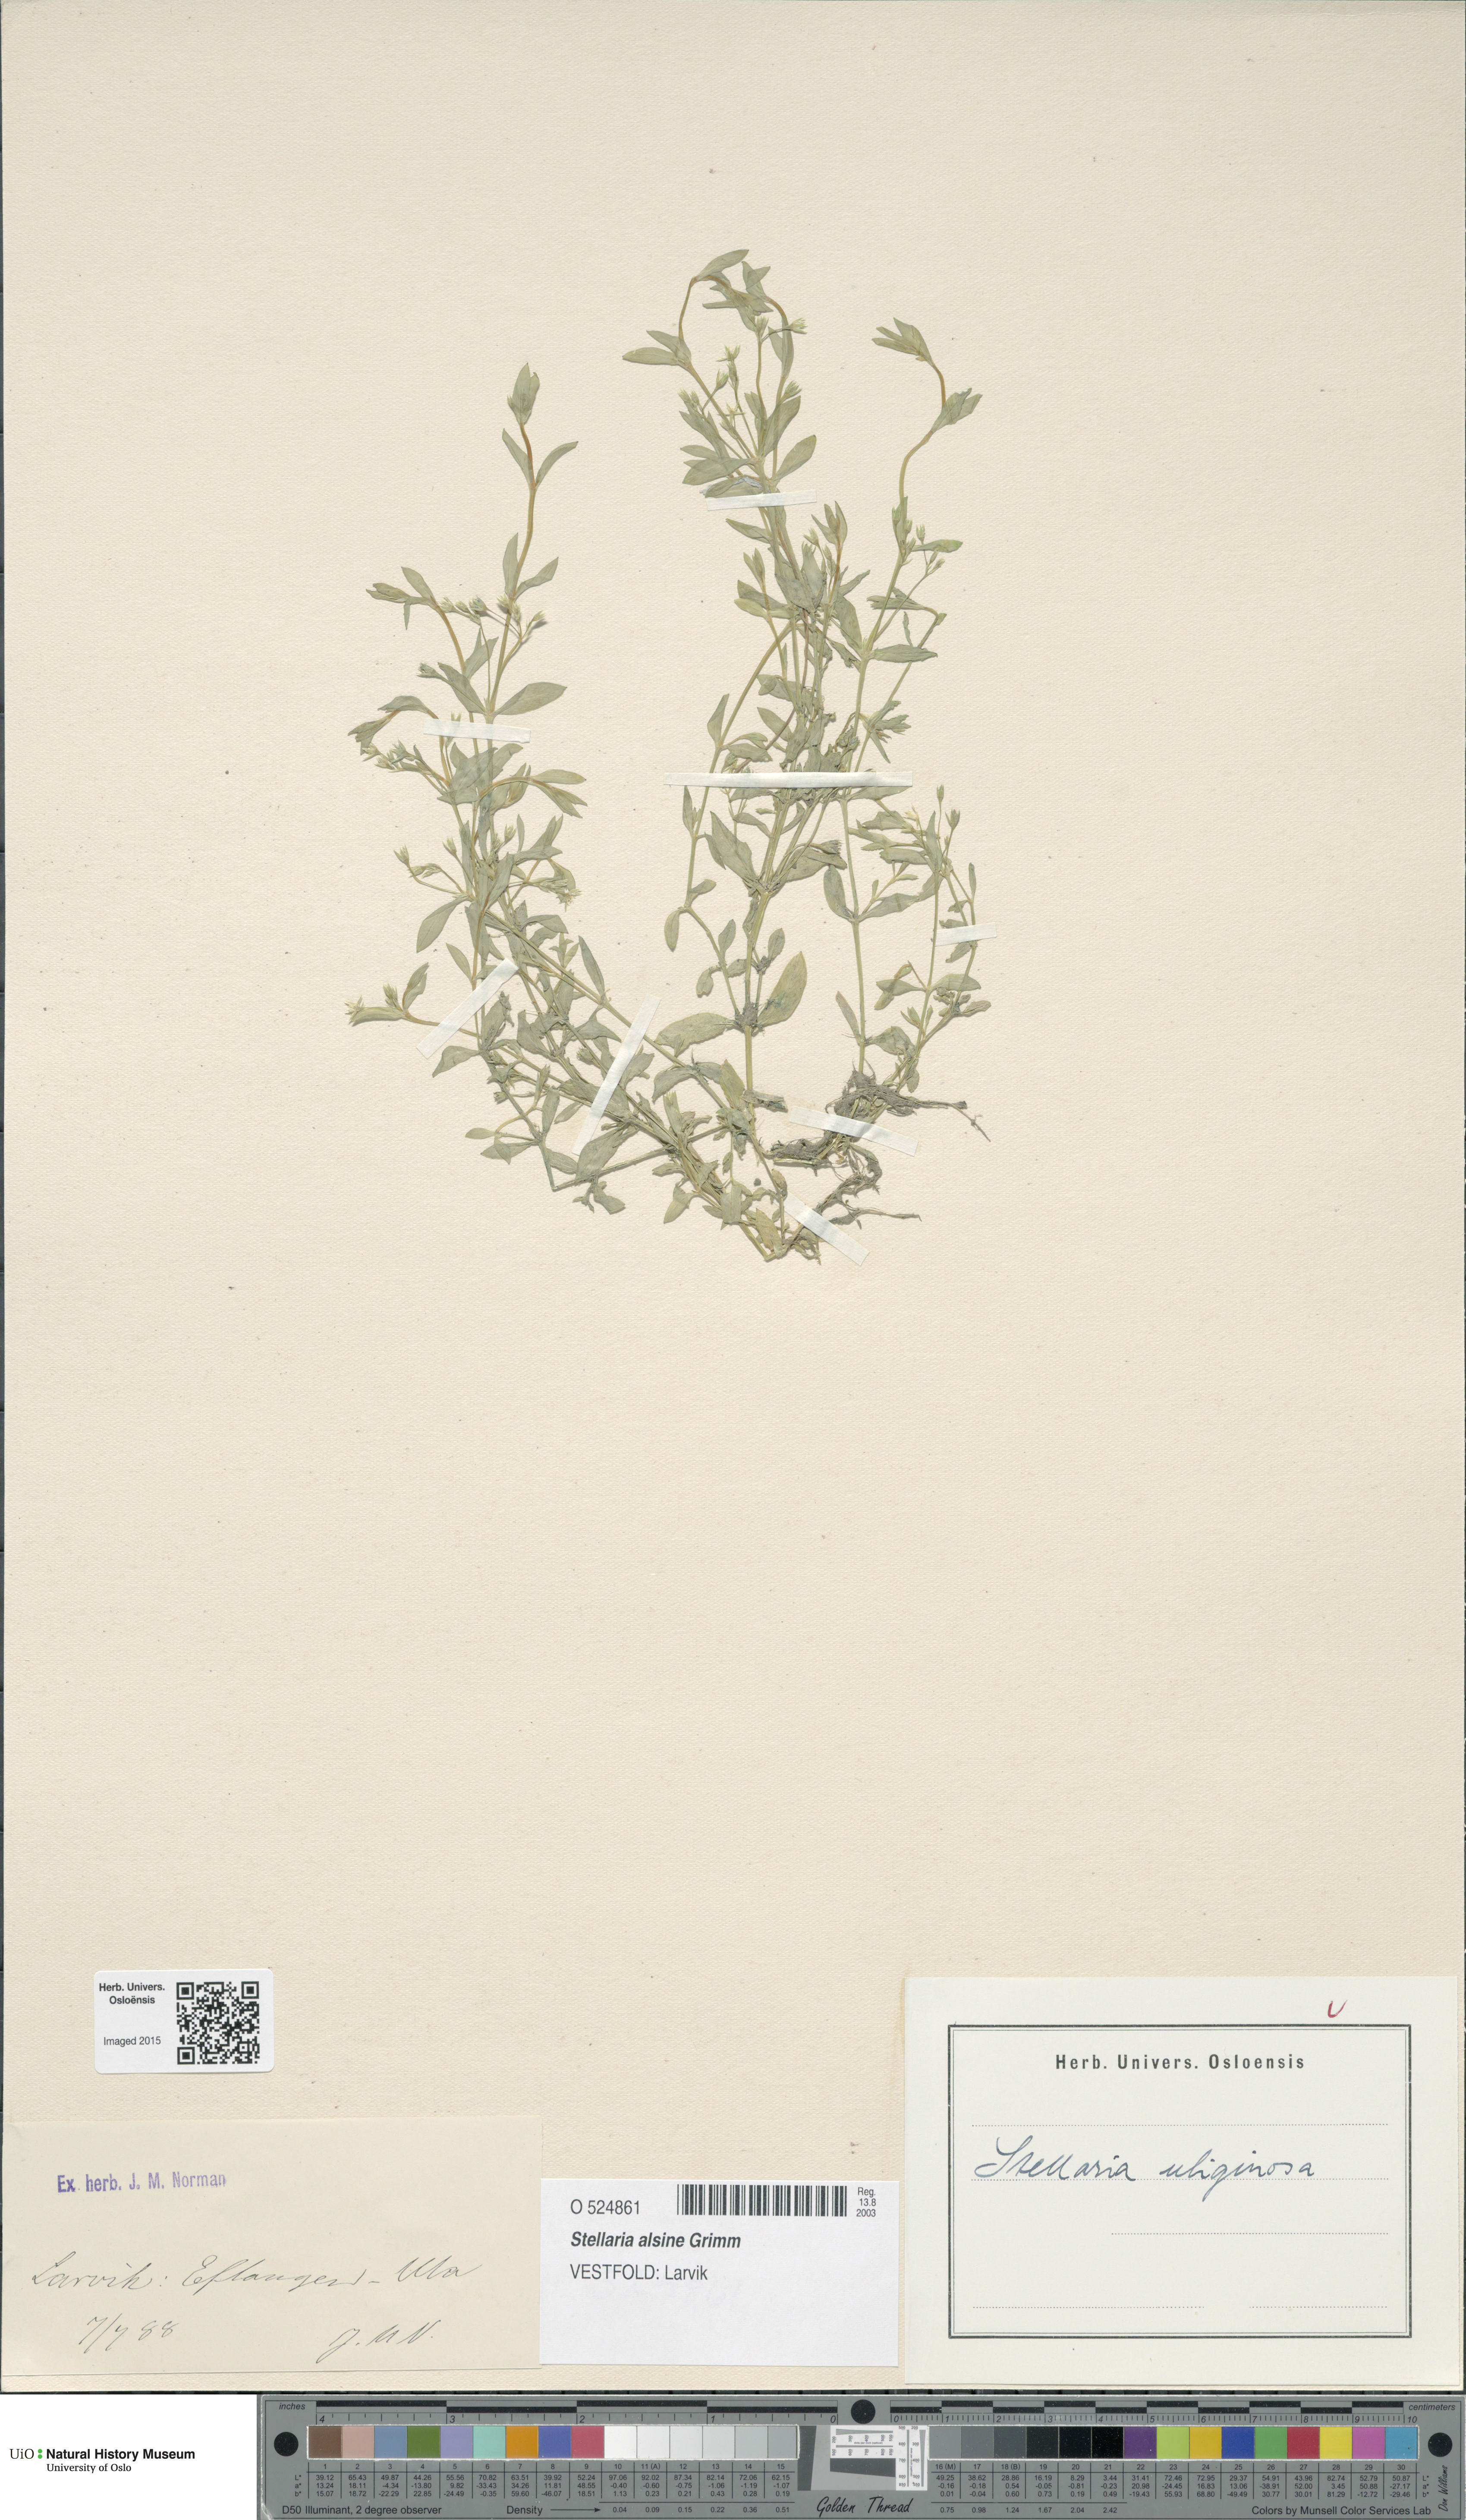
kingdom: Plantae
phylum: Tracheophyta
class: Magnoliopsida
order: Caryophyllales
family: Caryophyllaceae
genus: Stellaria
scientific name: Stellaria alsine
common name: Bog stitchwort
